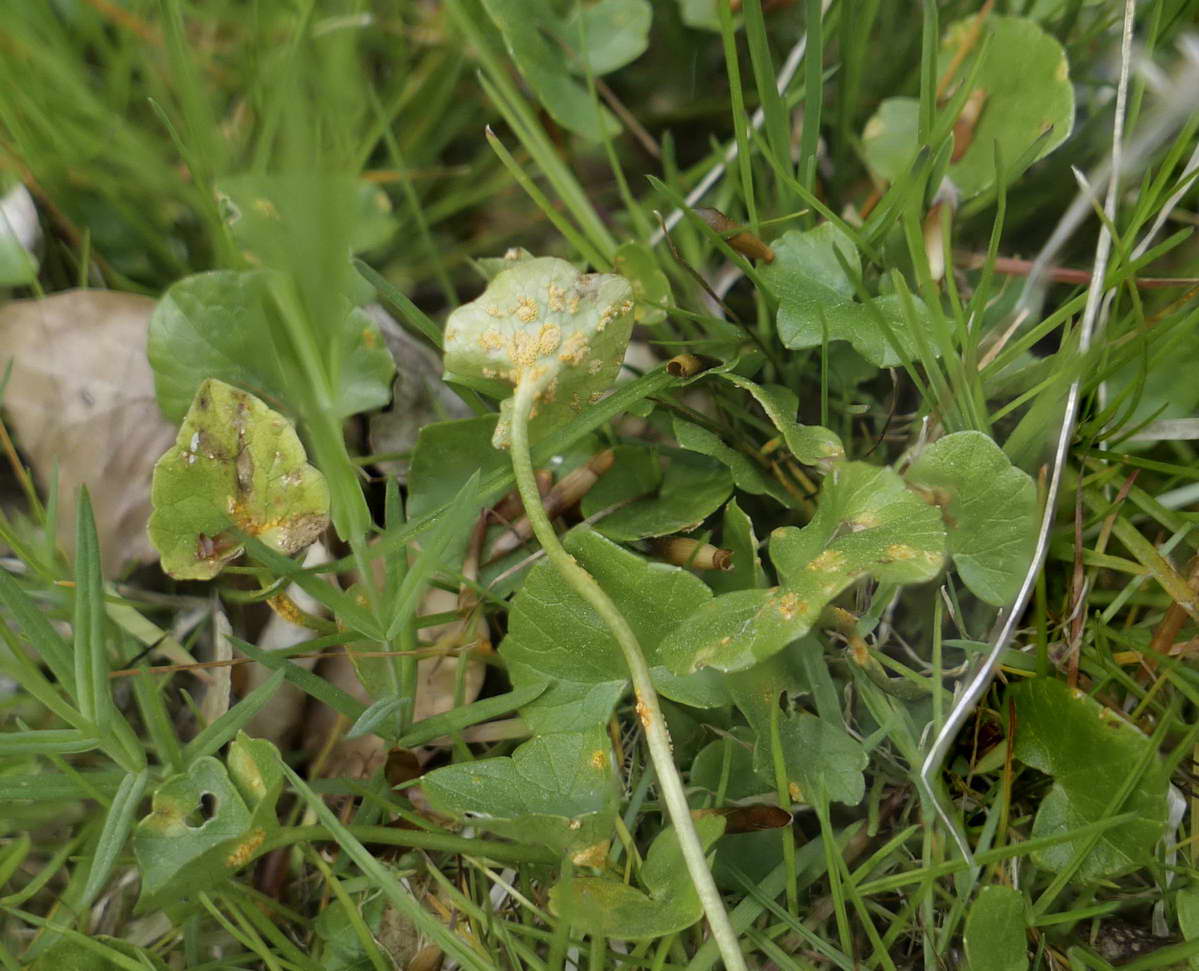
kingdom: Fungi
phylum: Basidiomycota
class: Pucciniomycetes
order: Pucciniales
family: Pucciniaceae
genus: Uromyces
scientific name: Uromyces dactylidis
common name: ranunkel-encellerust
